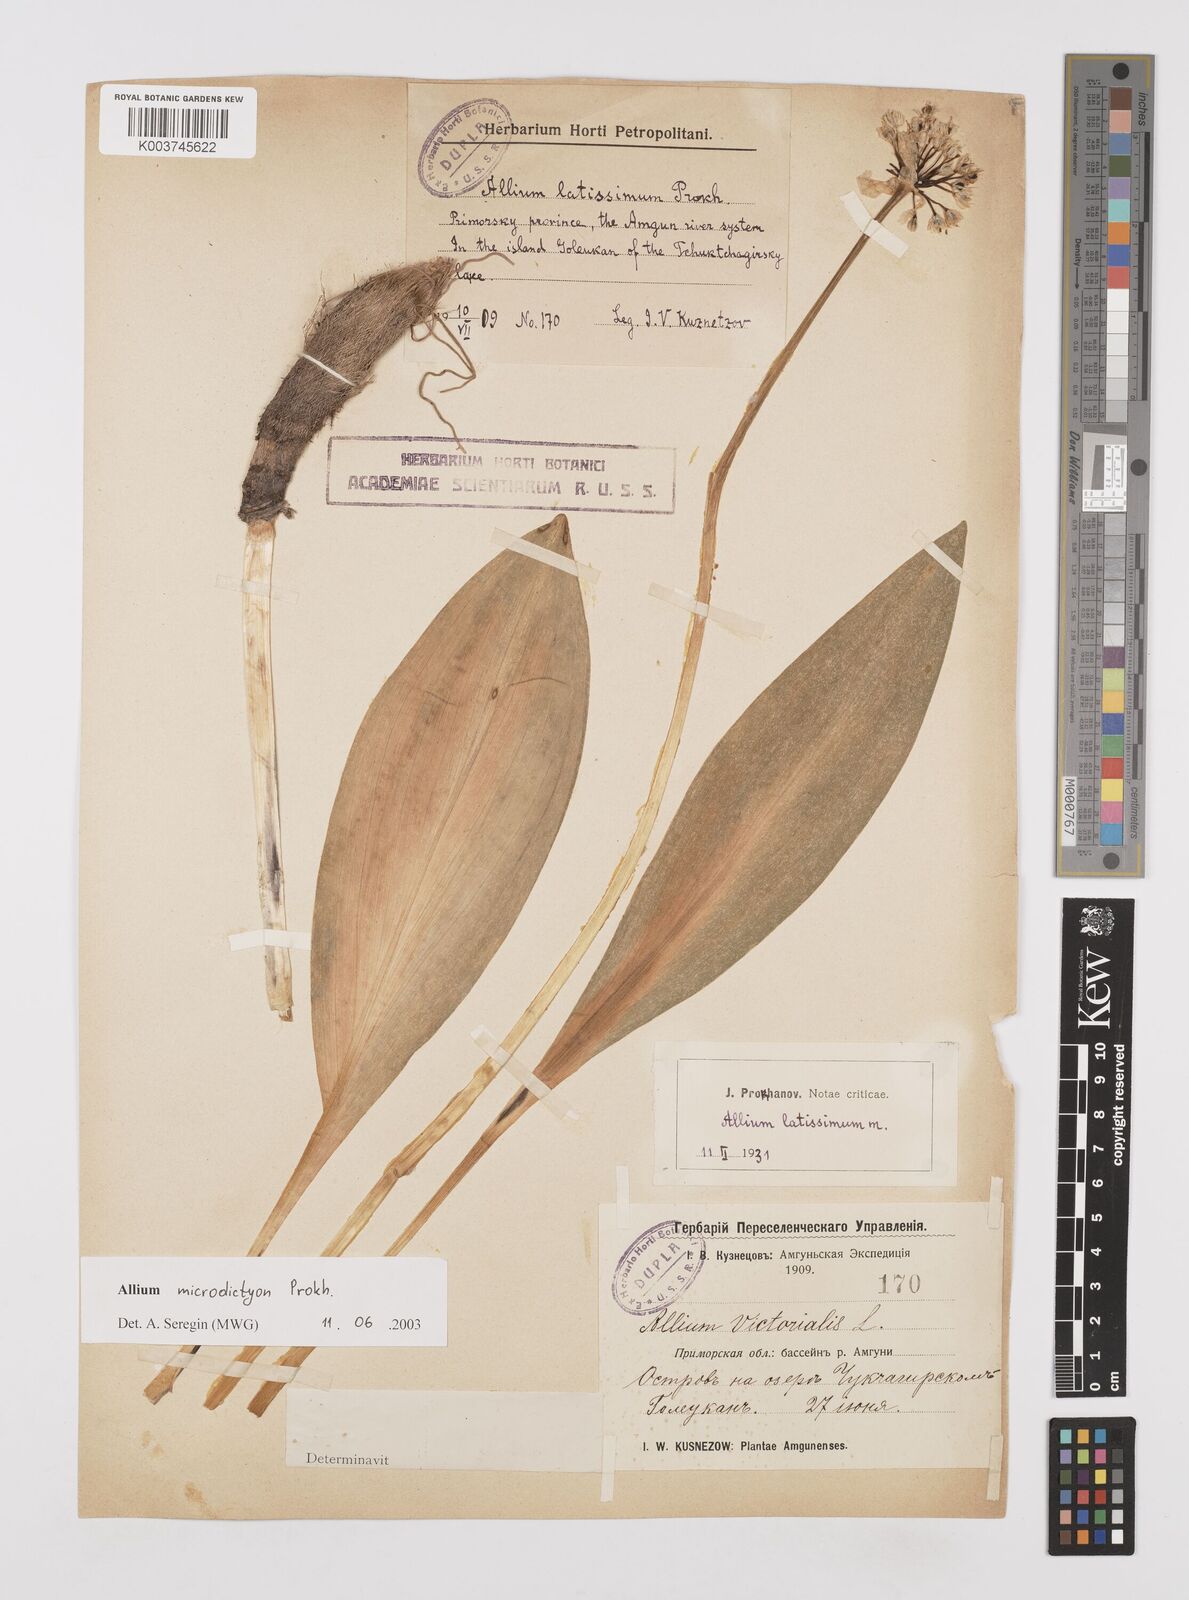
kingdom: Plantae
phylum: Tracheophyta
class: Liliopsida
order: Asparagales
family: Amaryllidaceae
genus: Allium
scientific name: Allium victorialis
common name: Alpine leek
